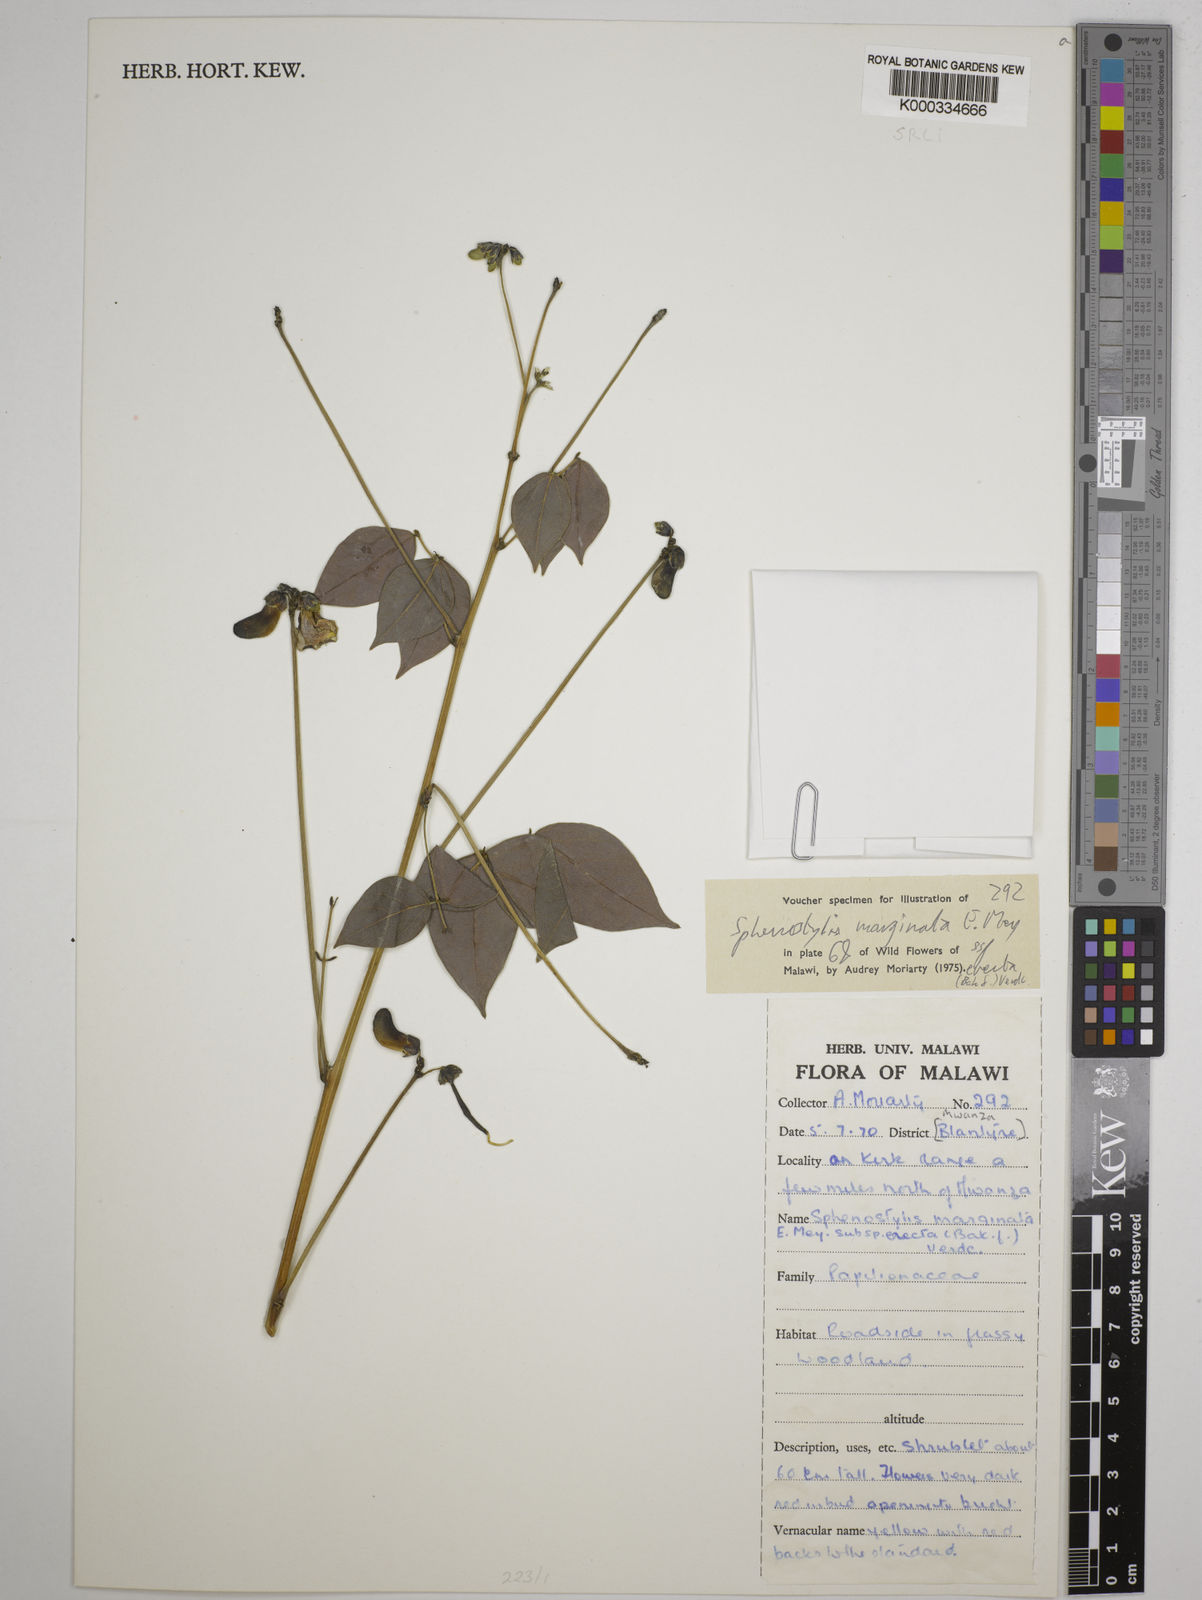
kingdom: Plantae
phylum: Tracheophyta
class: Magnoliopsida
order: Fabales
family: Fabaceae
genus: Sphenostylis
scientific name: Sphenostylis erecta
